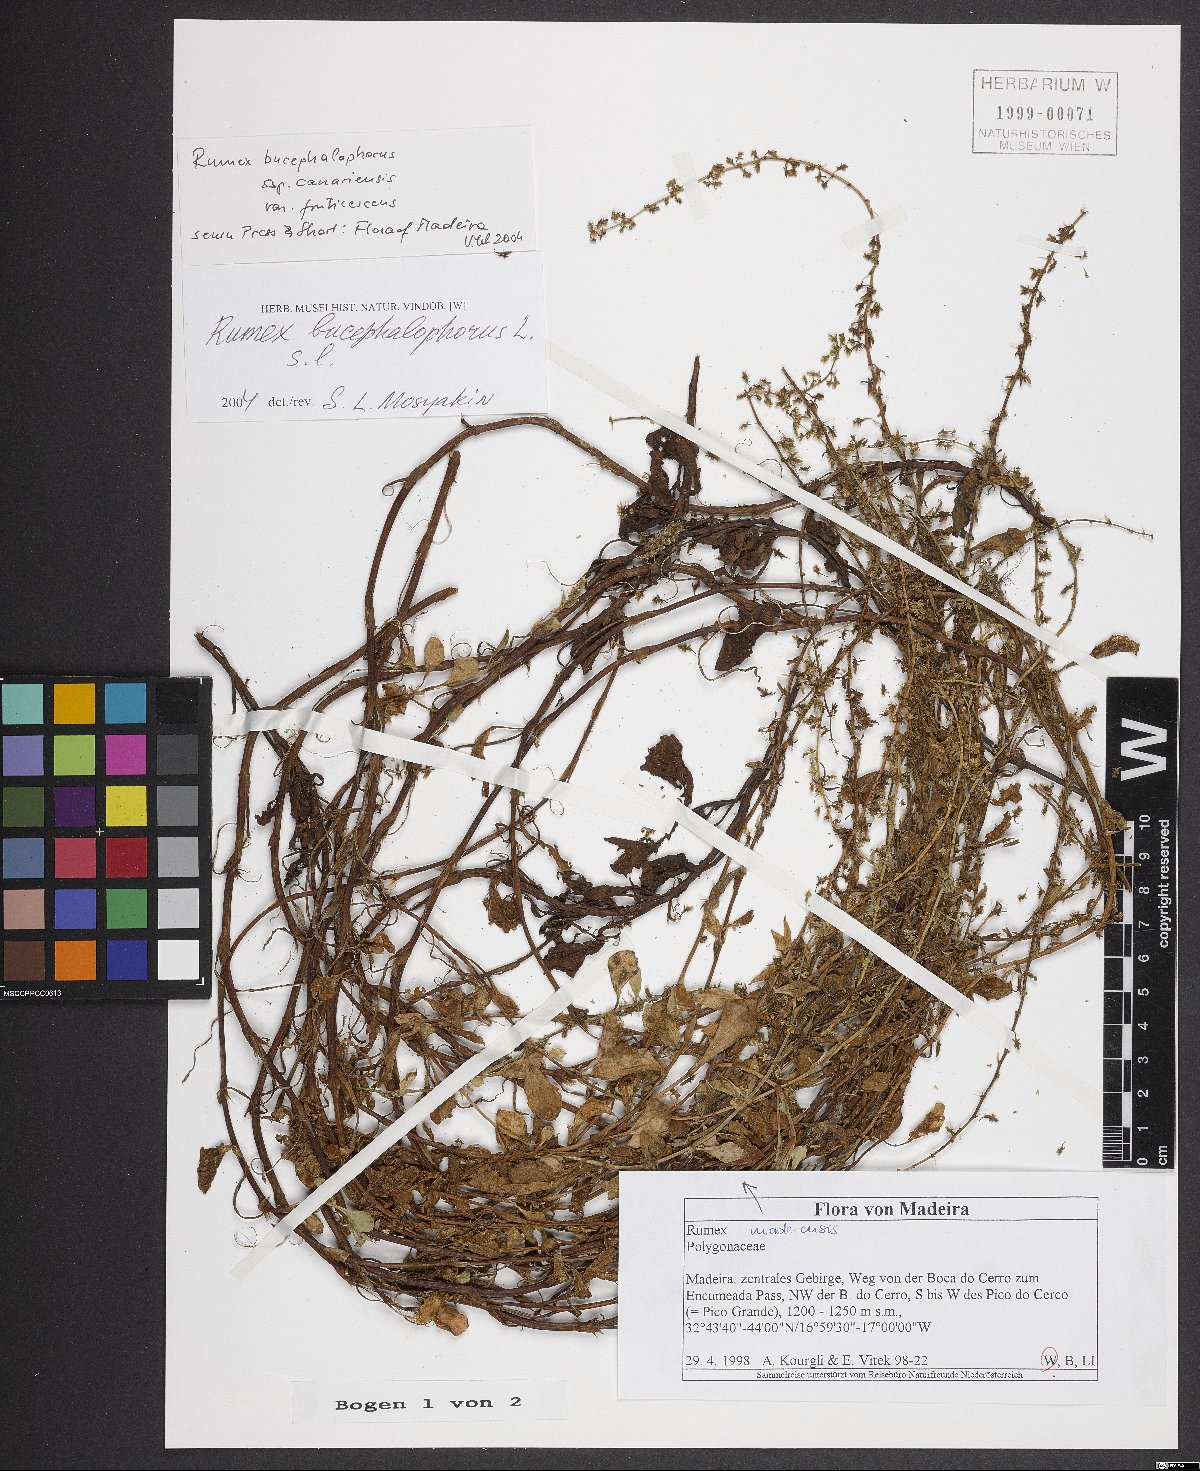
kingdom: Plantae
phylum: Tracheophyta
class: Magnoliopsida
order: Caryophyllales
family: Polygonaceae
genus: Rumex
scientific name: Rumex bucephalophorus
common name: Red dock
